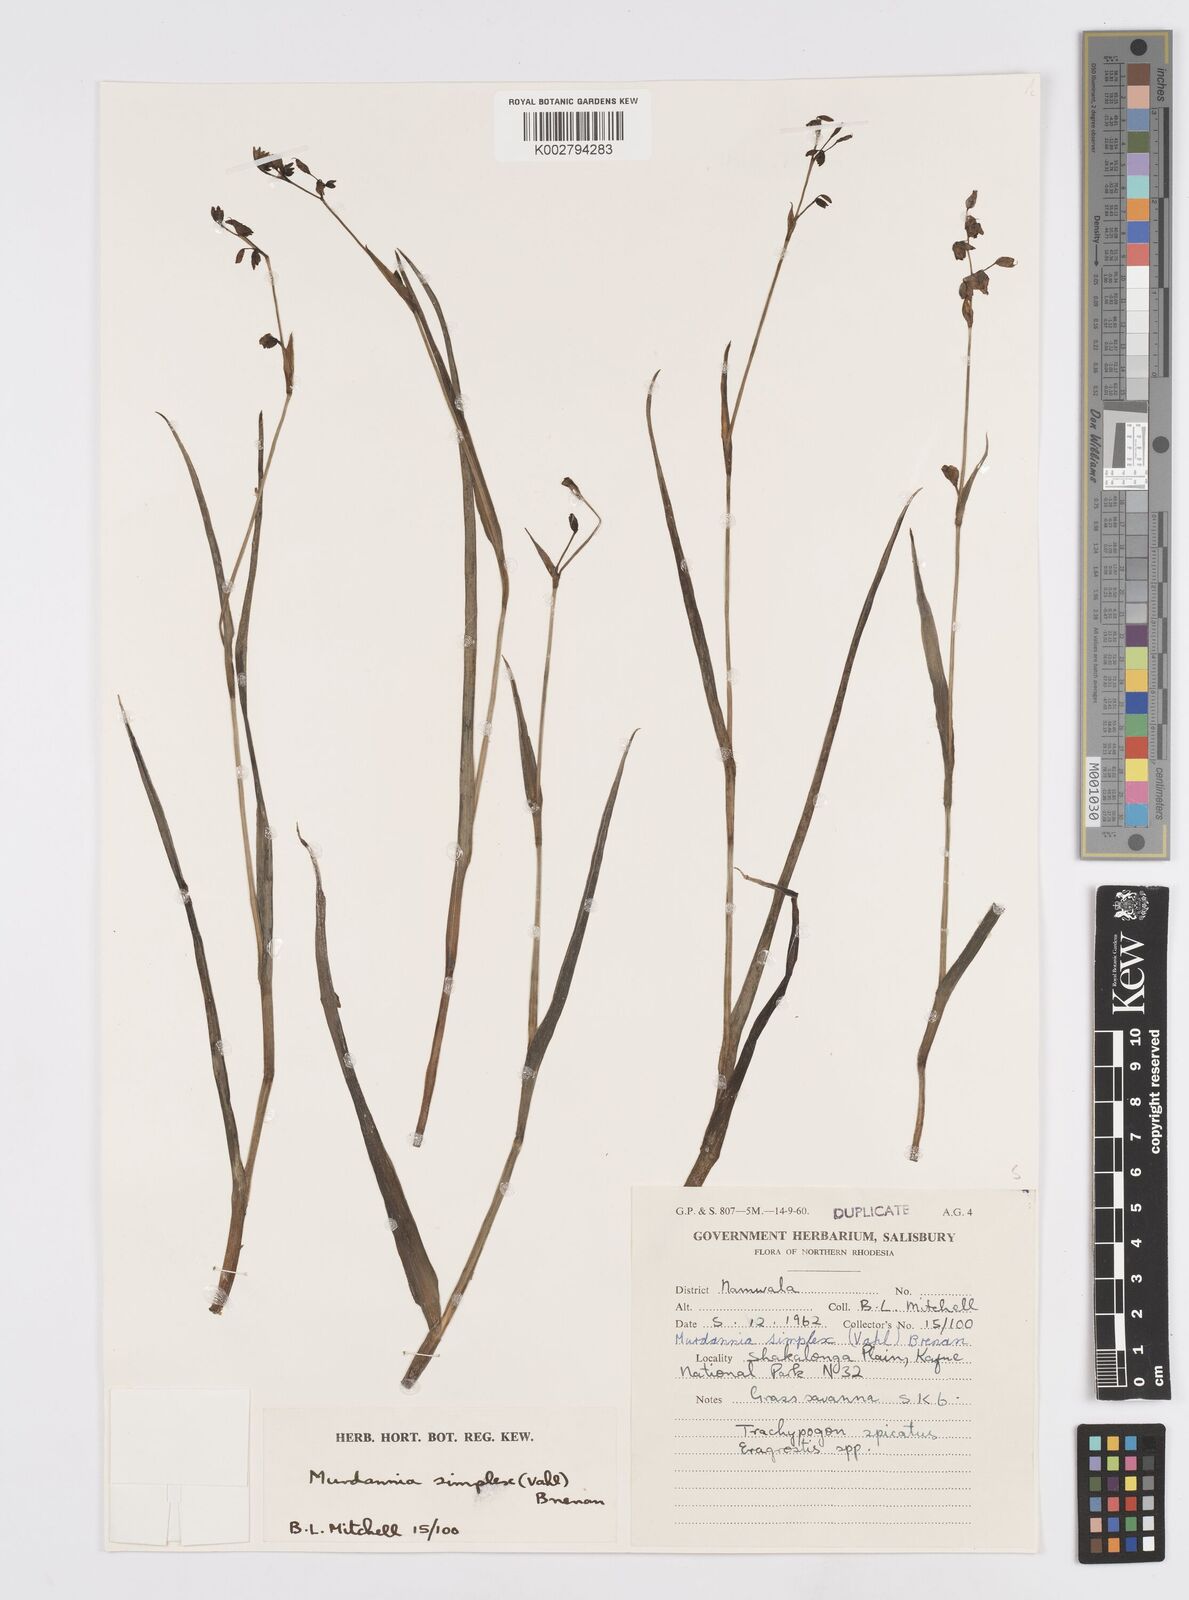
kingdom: Plantae
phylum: Tracheophyta
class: Liliopsida
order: Commelinales
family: Commelinaceae
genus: Murdannia
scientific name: Murdannia simplex
